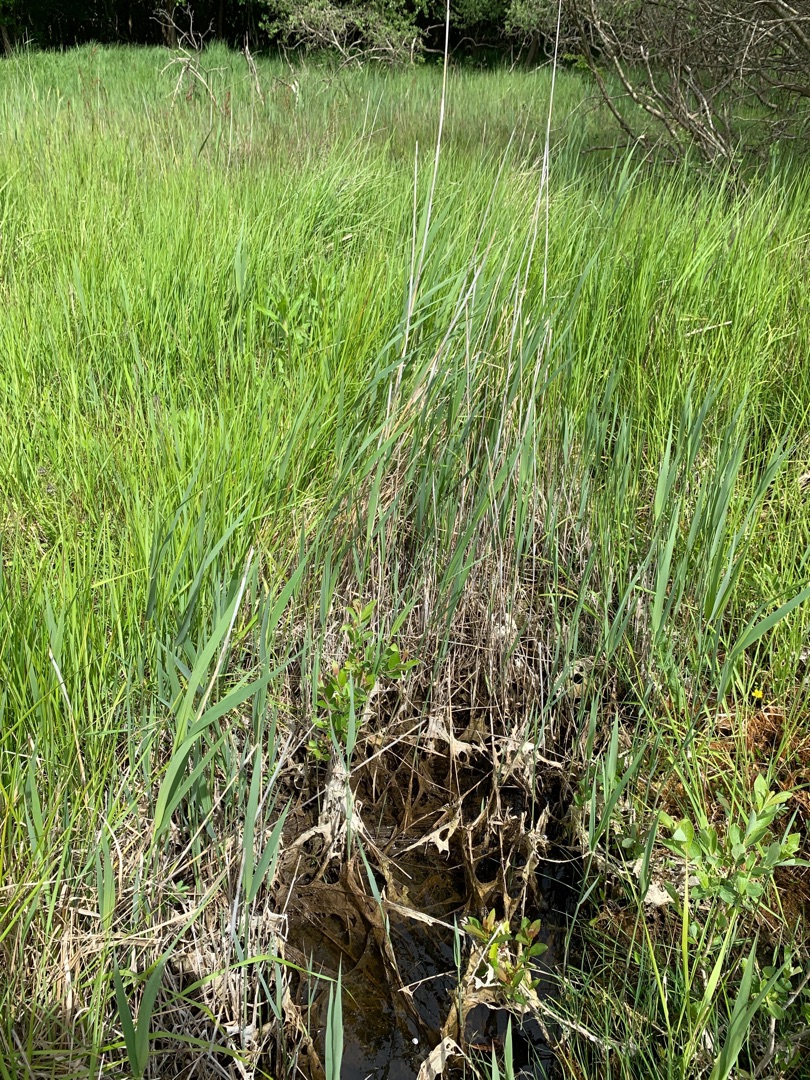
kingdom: Plantae
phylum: Tracheophyta
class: Liliopsida
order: Poales
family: Poaceae
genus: Phragmites
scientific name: Phragmites australis
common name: Tagrør
